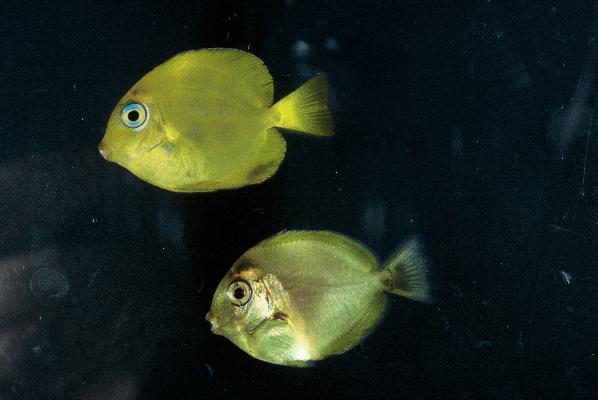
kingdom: Animalia
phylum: Chordata
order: Perciformes
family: Acanthuridae
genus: Acanthurus
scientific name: Acanthurus coeruleus
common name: Blue tang
